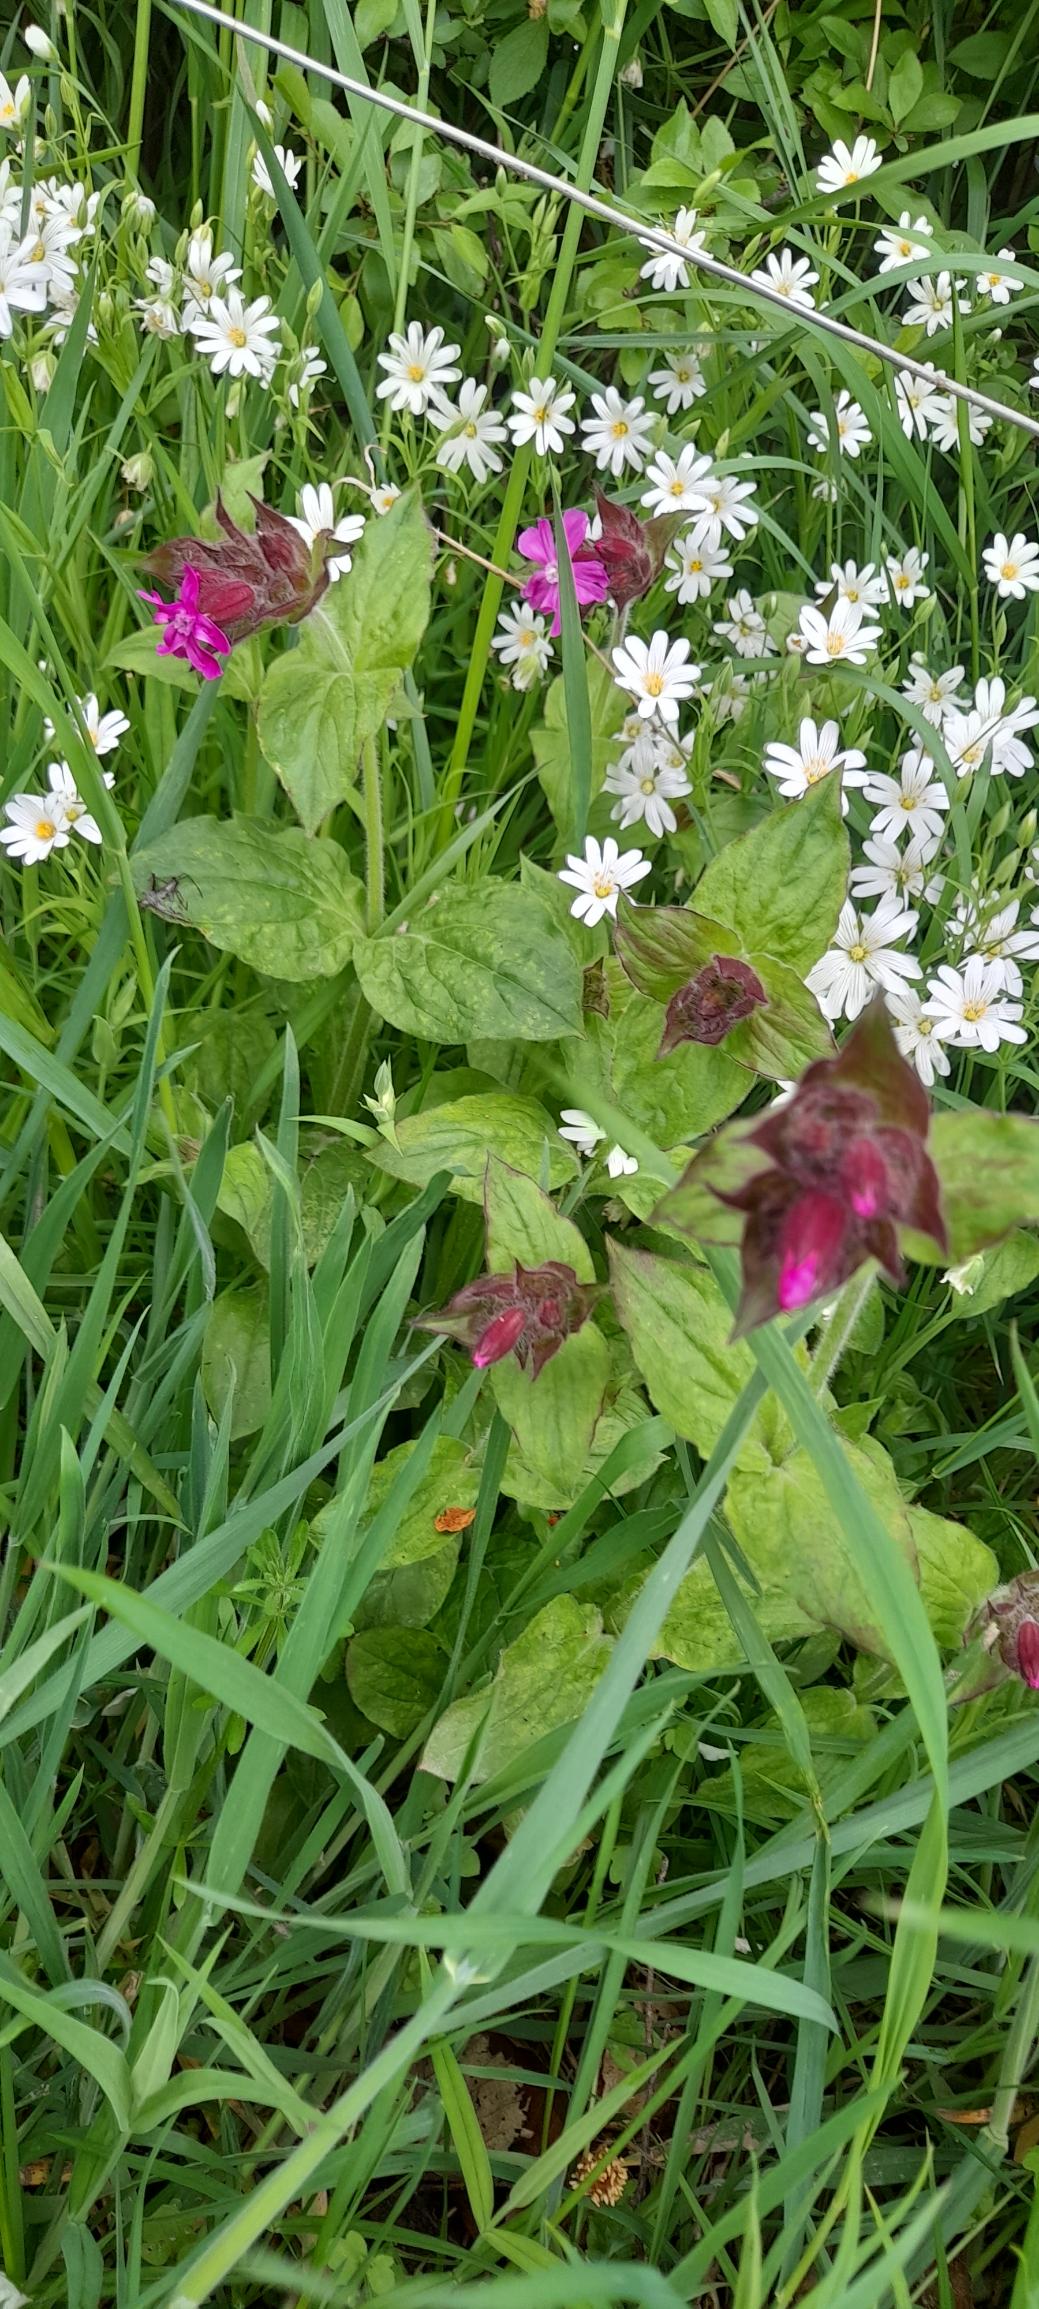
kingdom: Plantae
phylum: Tracheophyta
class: Magnoliopsida
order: Caryophyllales
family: Caryophyllaceae
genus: Silene
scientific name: Silene dioica
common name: Dagpragtstjerne
